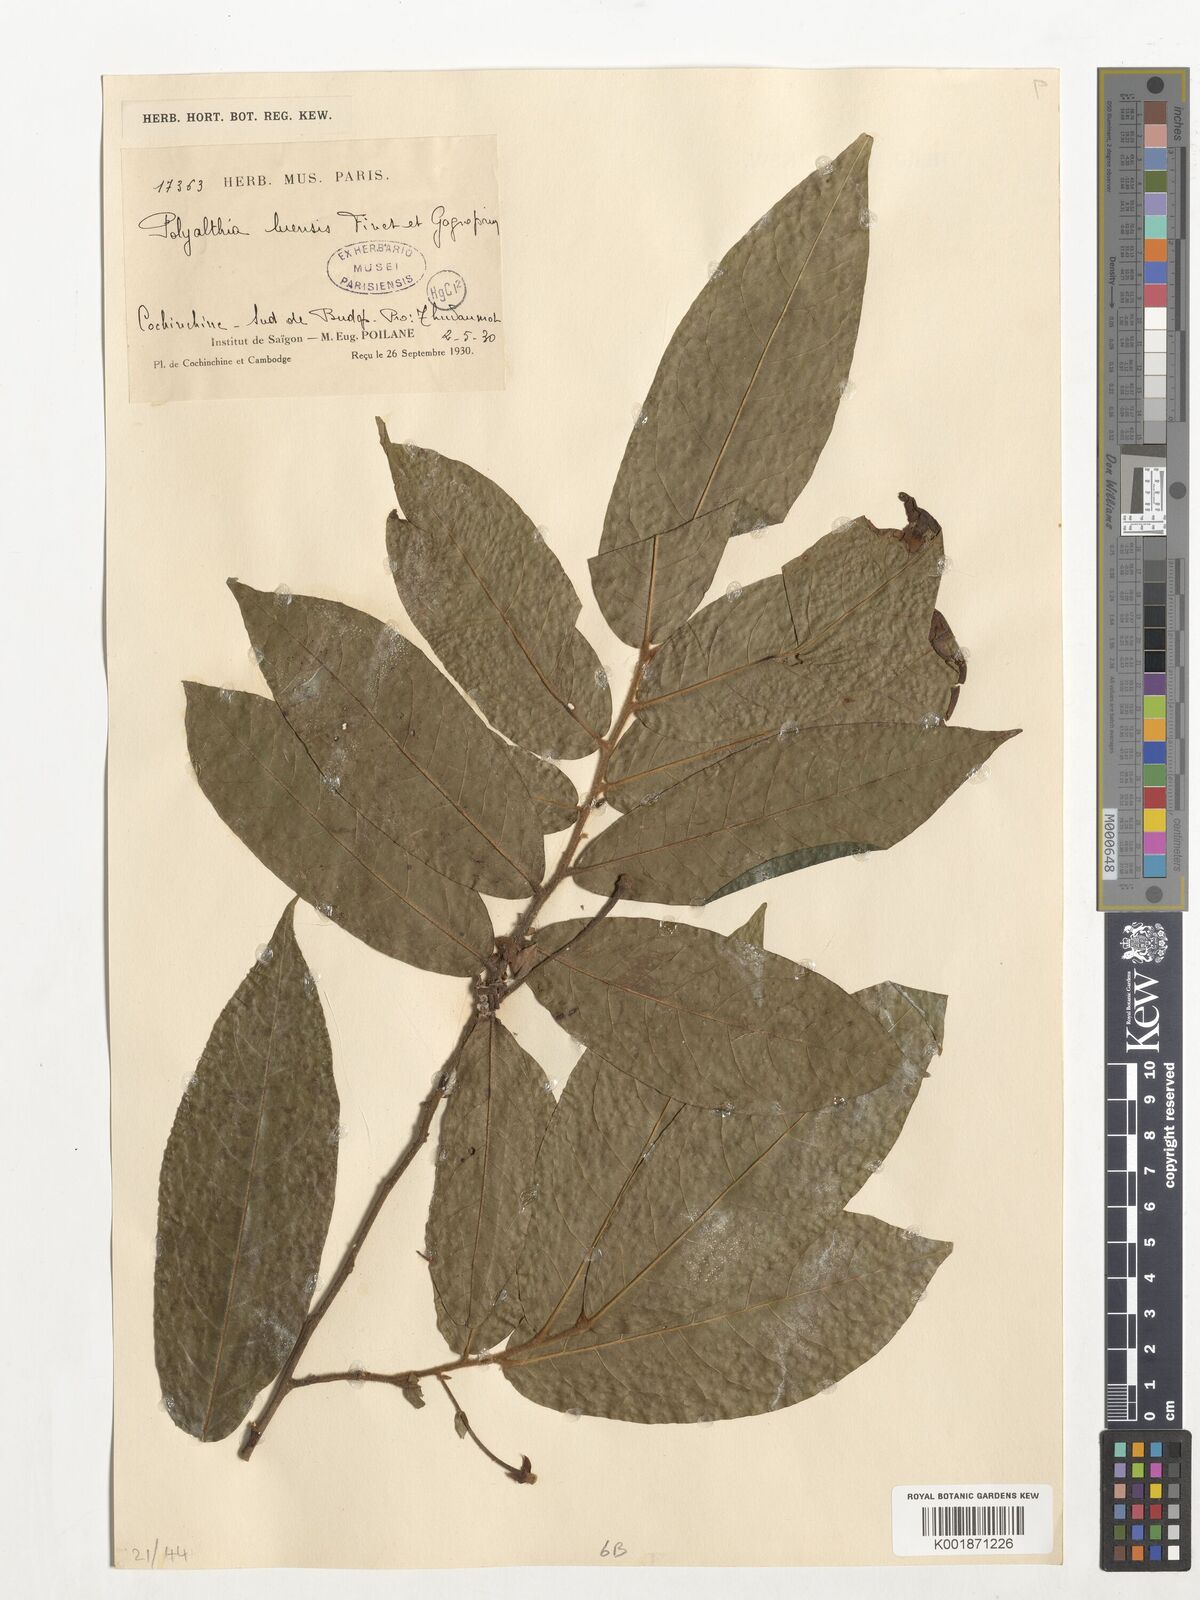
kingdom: Plantae
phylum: Tracheophyta
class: Magnoliopsida
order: Magnoliales
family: Annonaceae
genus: Polyalthia
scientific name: Polyalthia luensis
